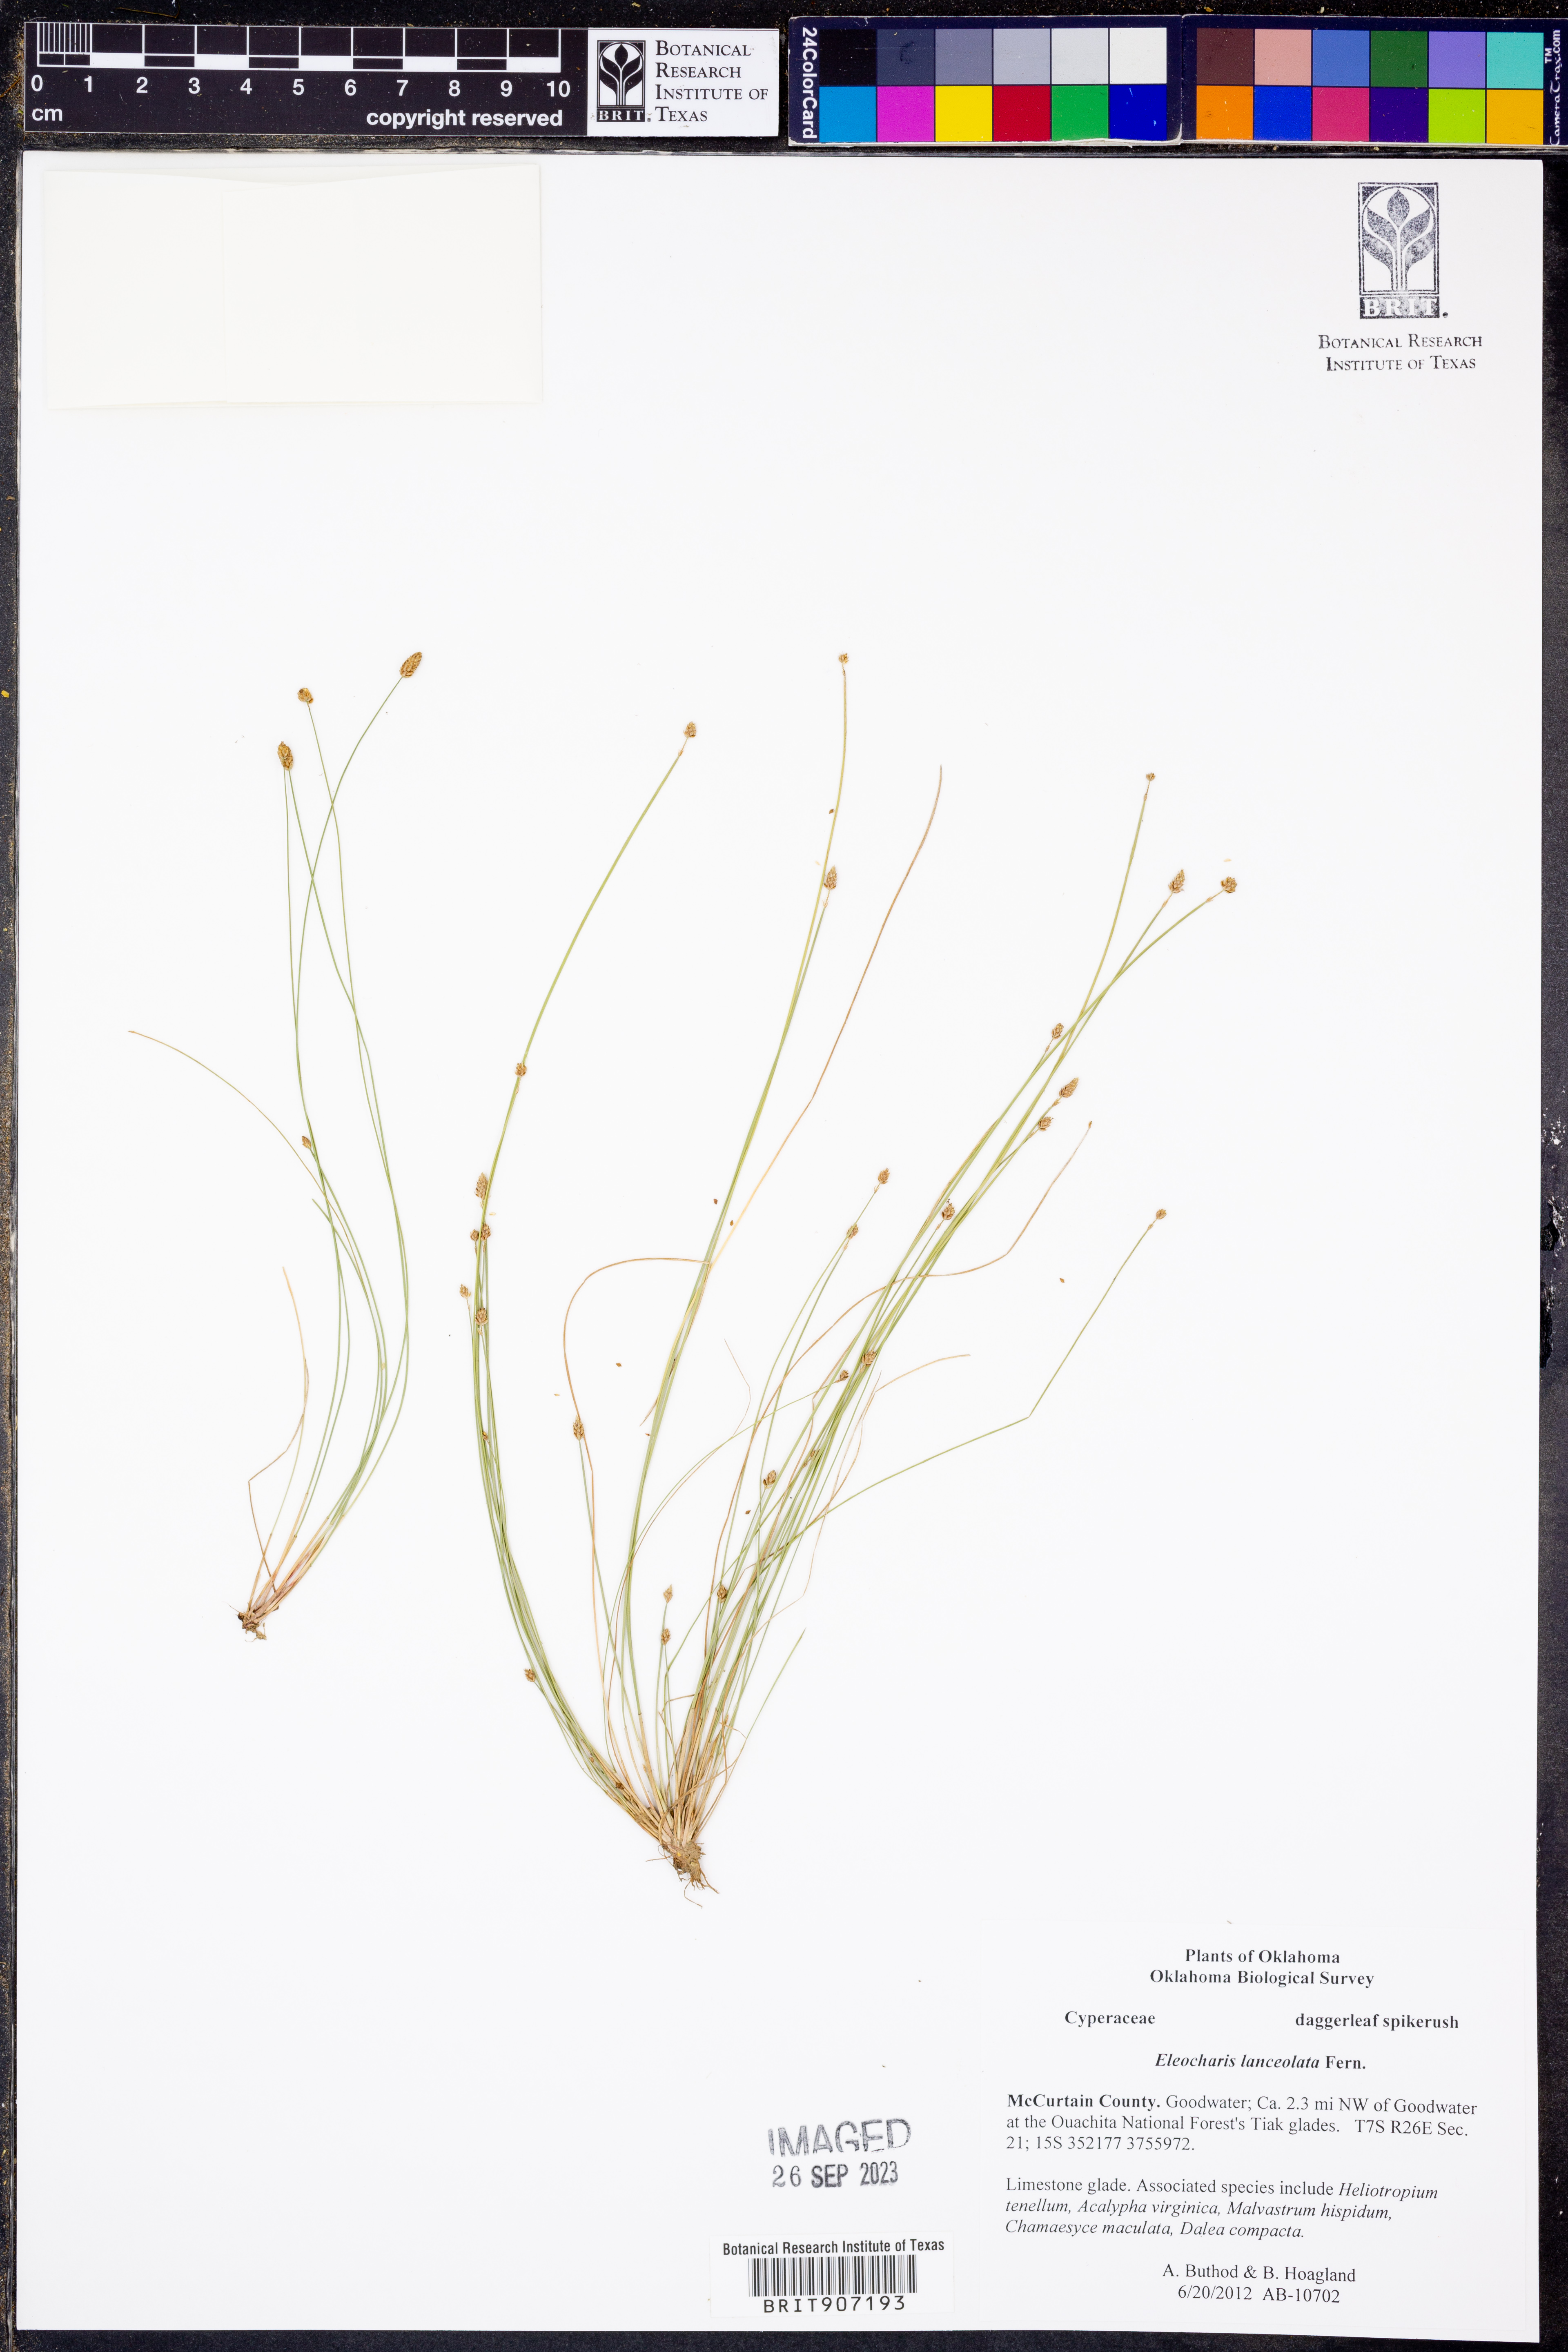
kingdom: Plantae
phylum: Tracheophyta
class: Liliopsida
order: Poales
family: Cyperaceae
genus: Eleocharis
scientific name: Eleocharis lanceolata
